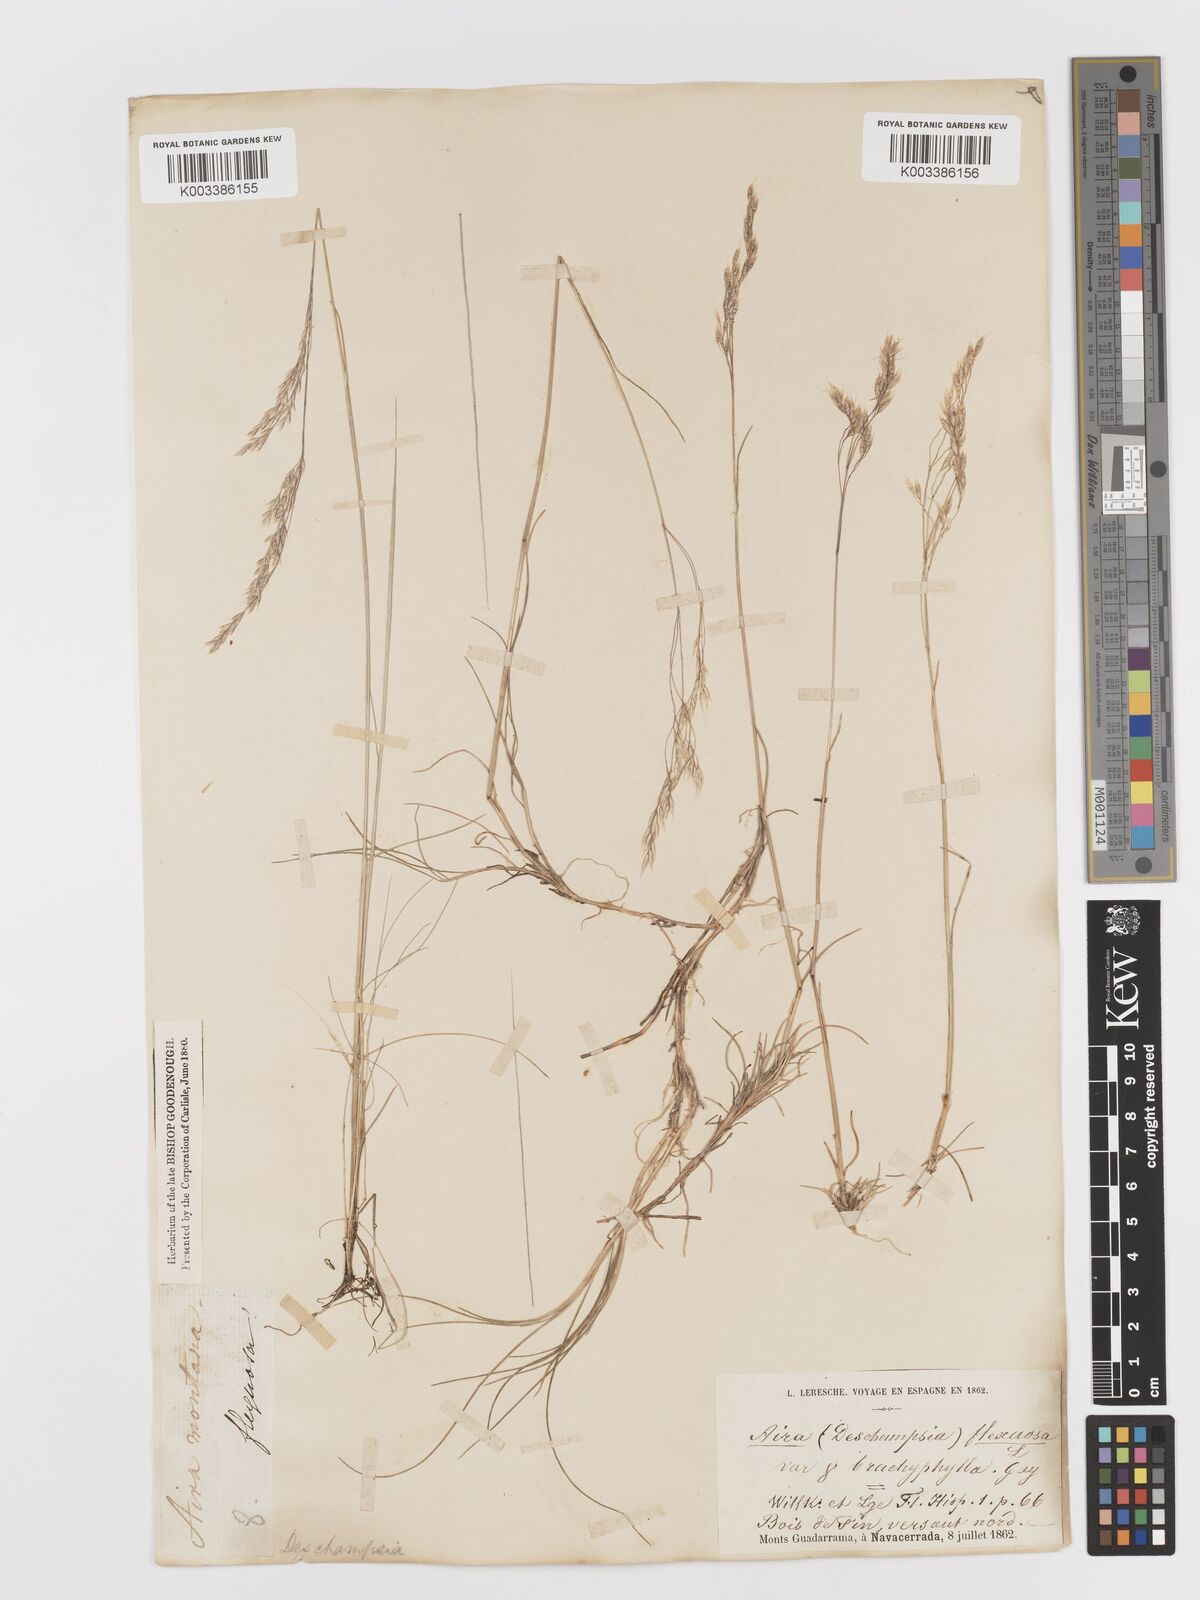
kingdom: Plantae
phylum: Tracheophyta
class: Liliopsida
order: Poales
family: Poaceae
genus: Avenella
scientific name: Avenella flexuosa
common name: Wavy hairgrass
